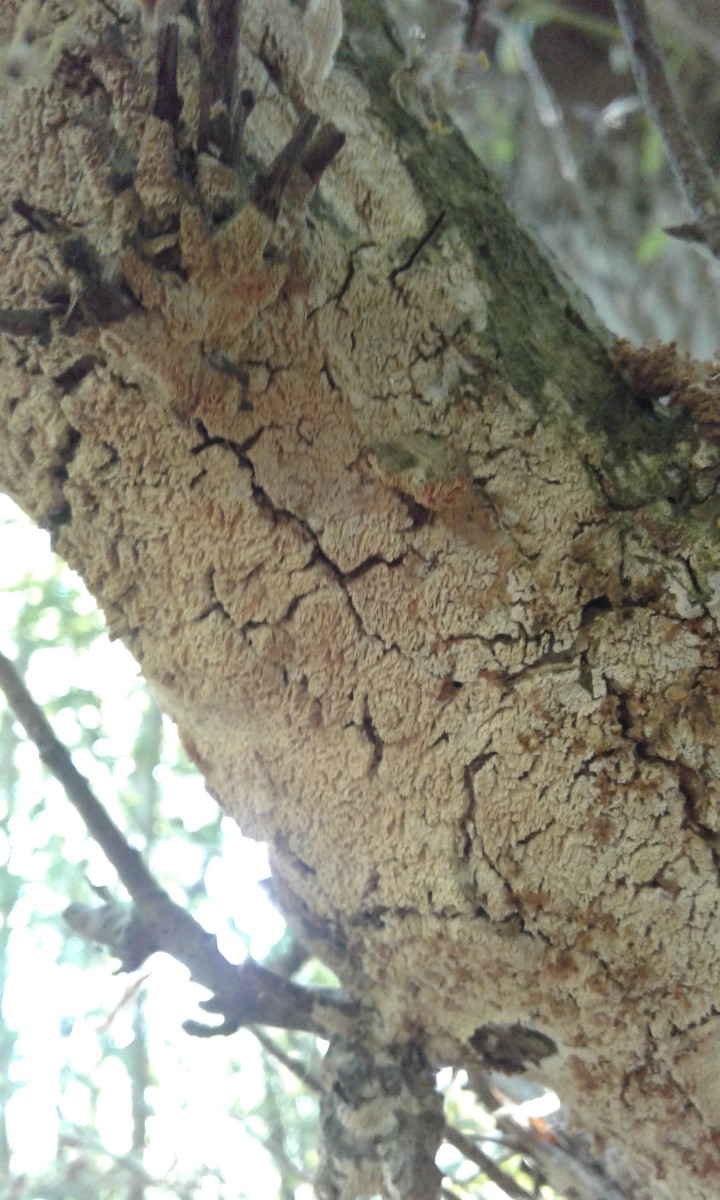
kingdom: Fungi
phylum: Basidiomycota
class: Agaricomycetes
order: Hymenochaetales
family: Schizoporaceae
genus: Schizopora
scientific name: Schizopora paradoxa
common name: hvid tandsvamp
